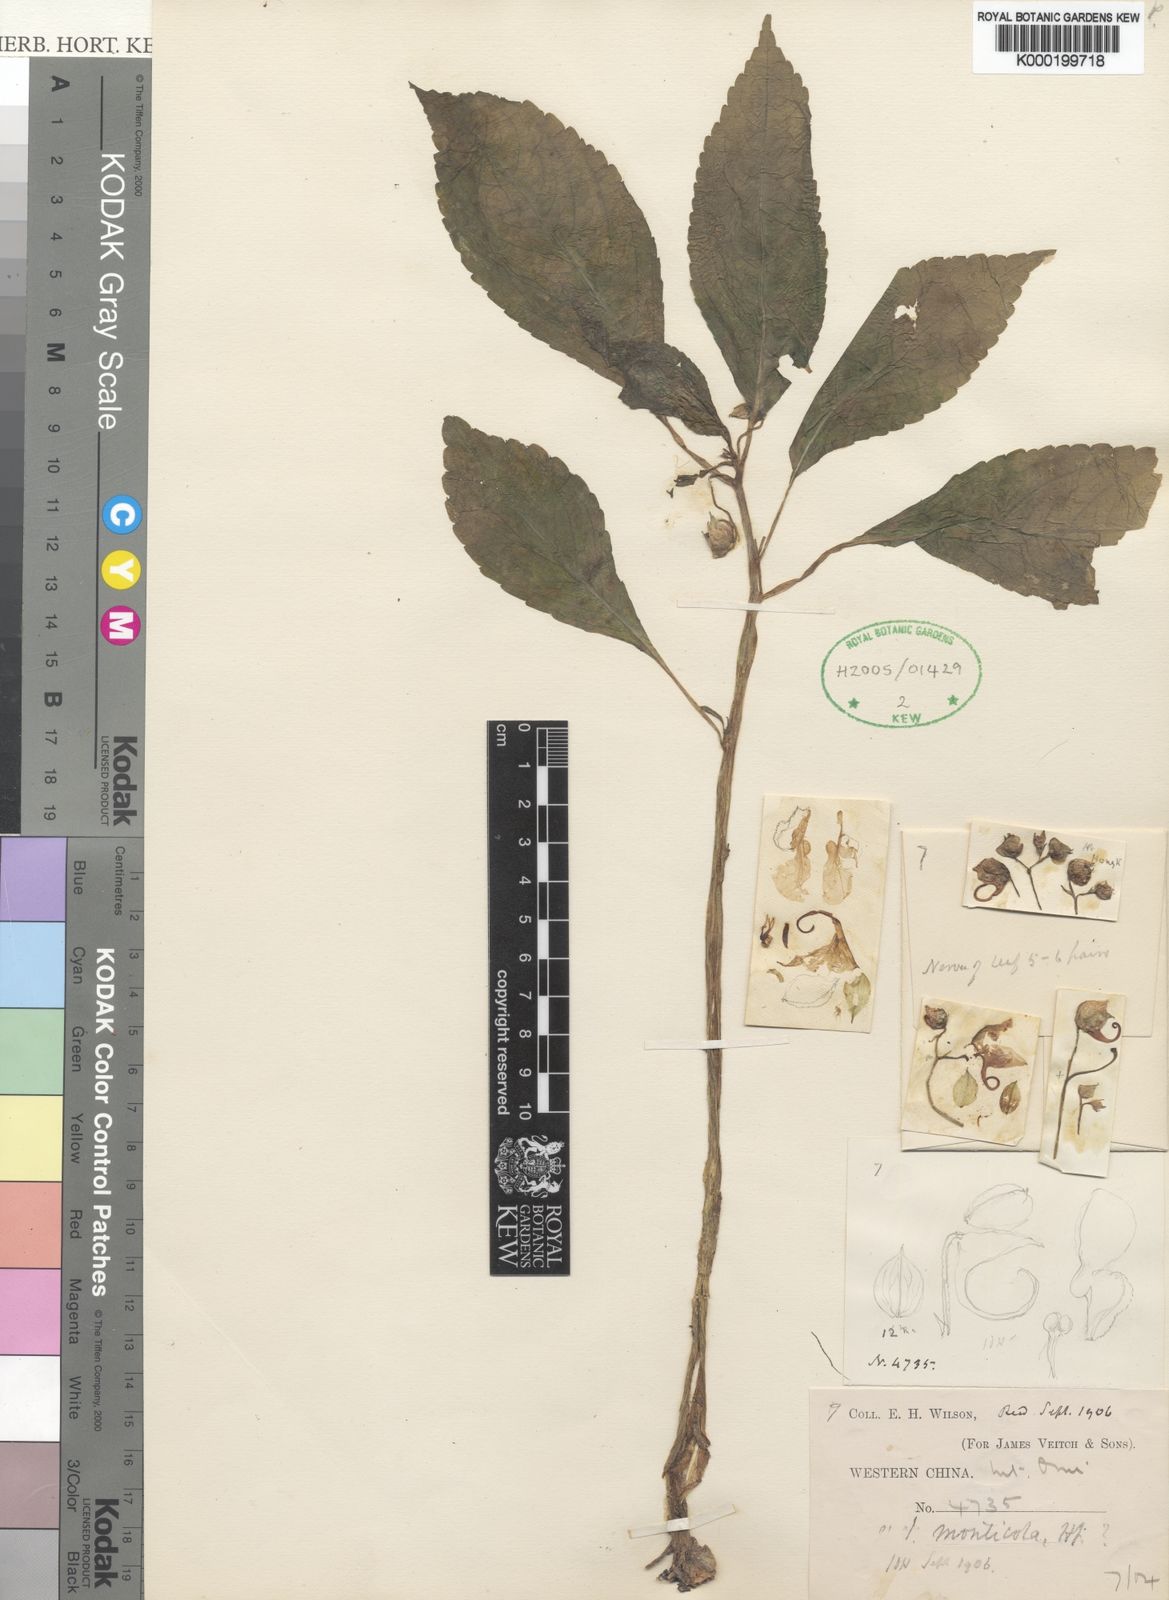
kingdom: Plantae
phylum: Tracheophyta
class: Magnoliopsida
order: Ericales
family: Balsaminaceae
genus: Impatiens
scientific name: Impatiens pulchra
